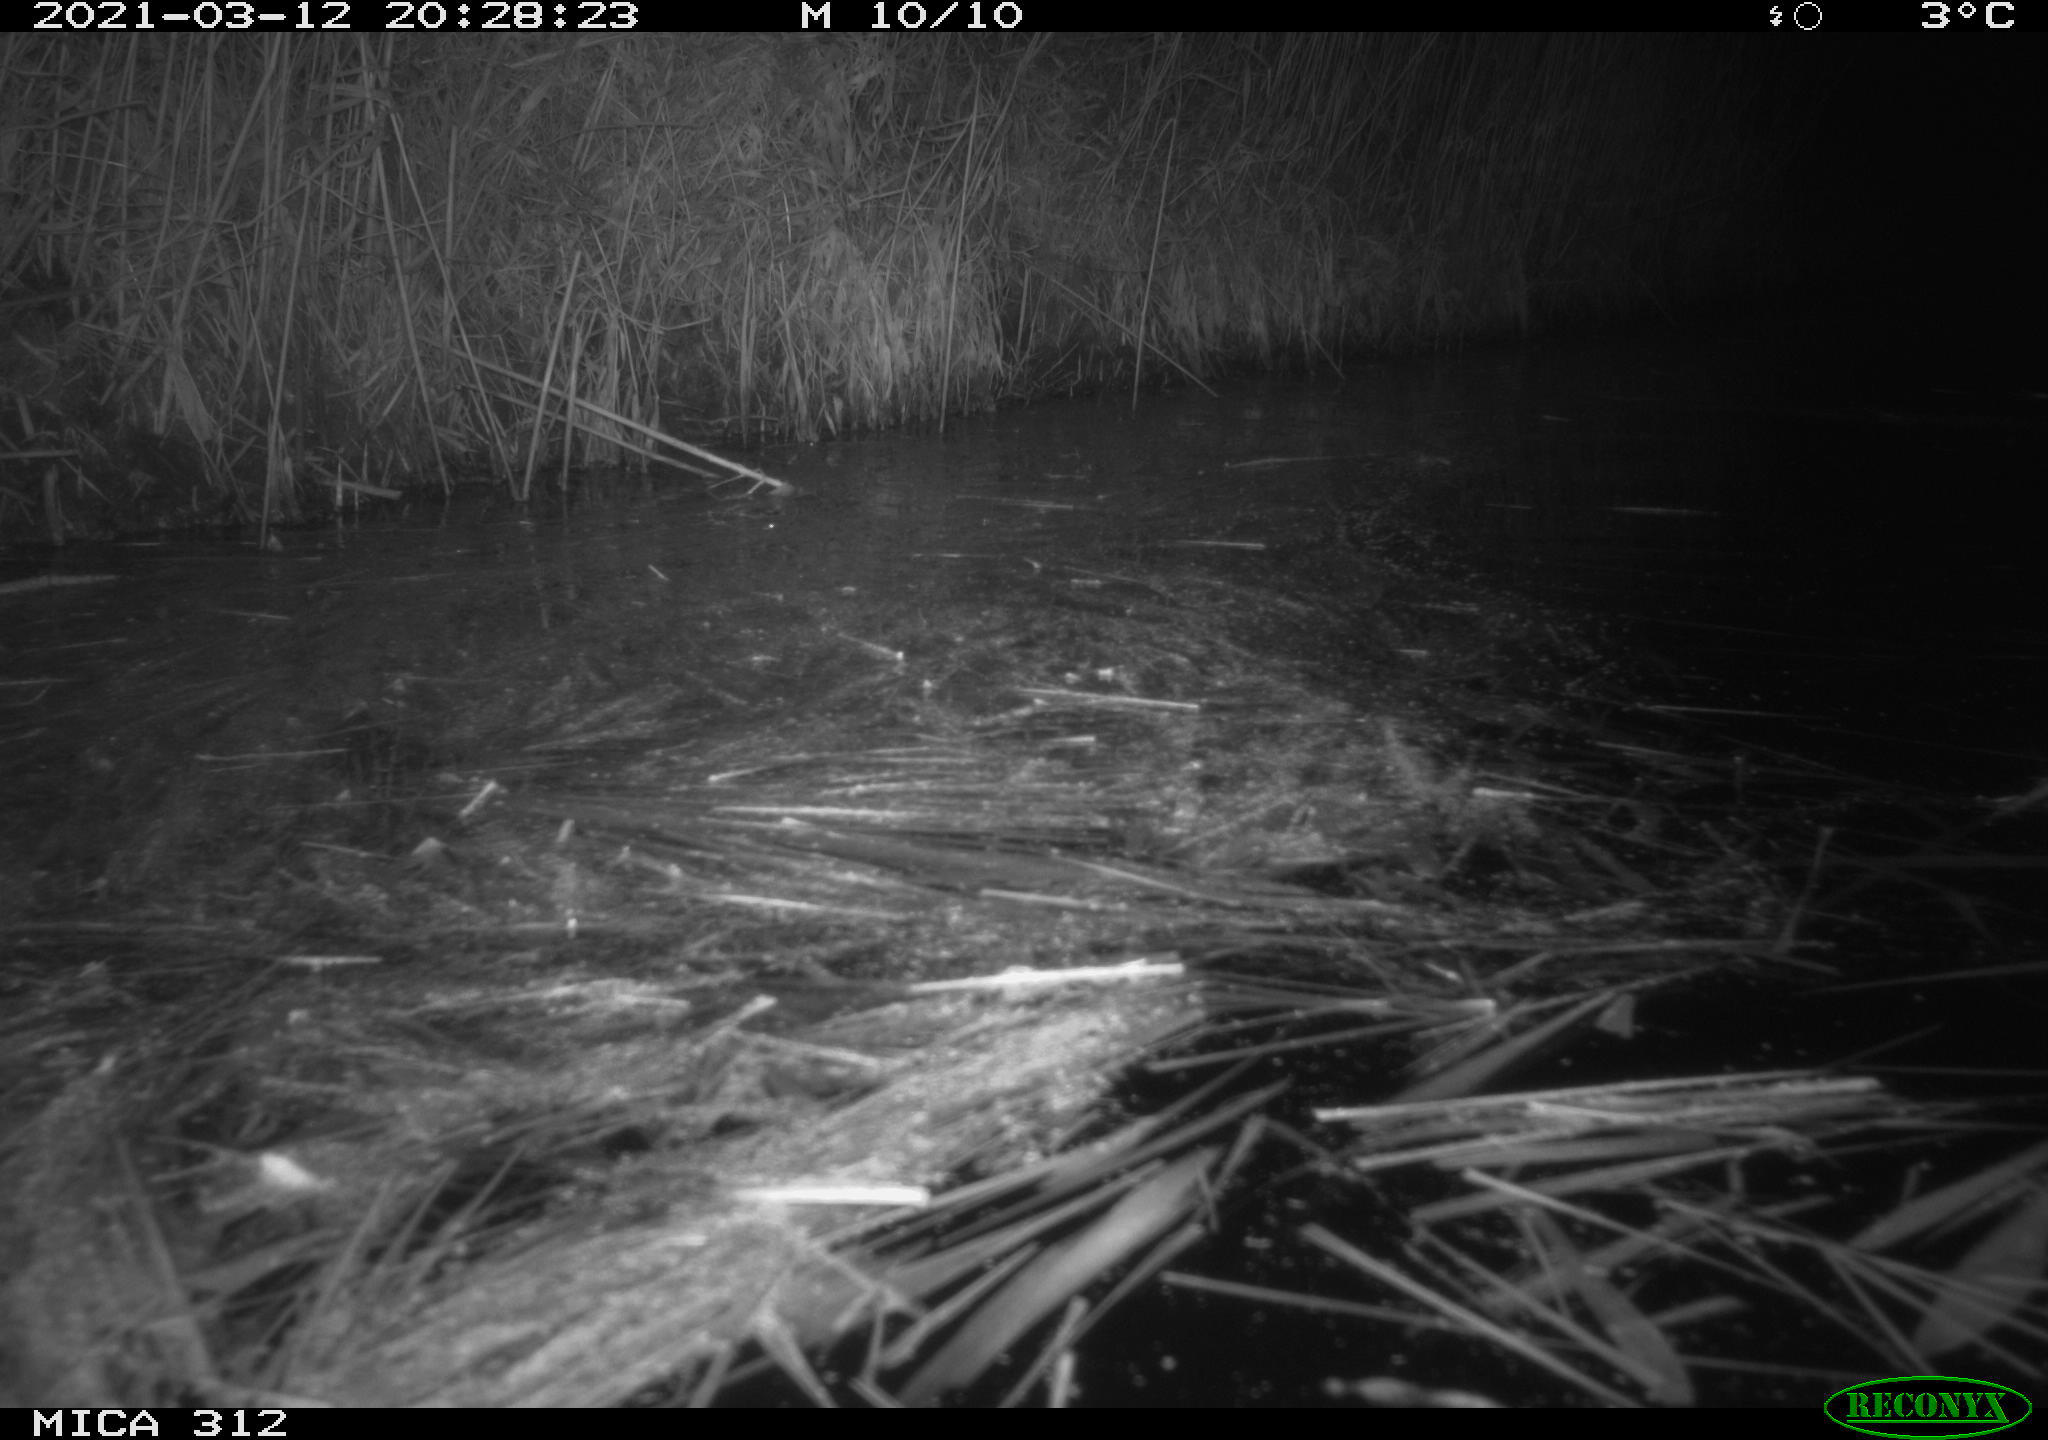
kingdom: Animalia
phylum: Chordata
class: Mammalia
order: Rodentia
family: Cricetidae
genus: Ondatra
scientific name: Ondatra zibethicus
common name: Muskrat
